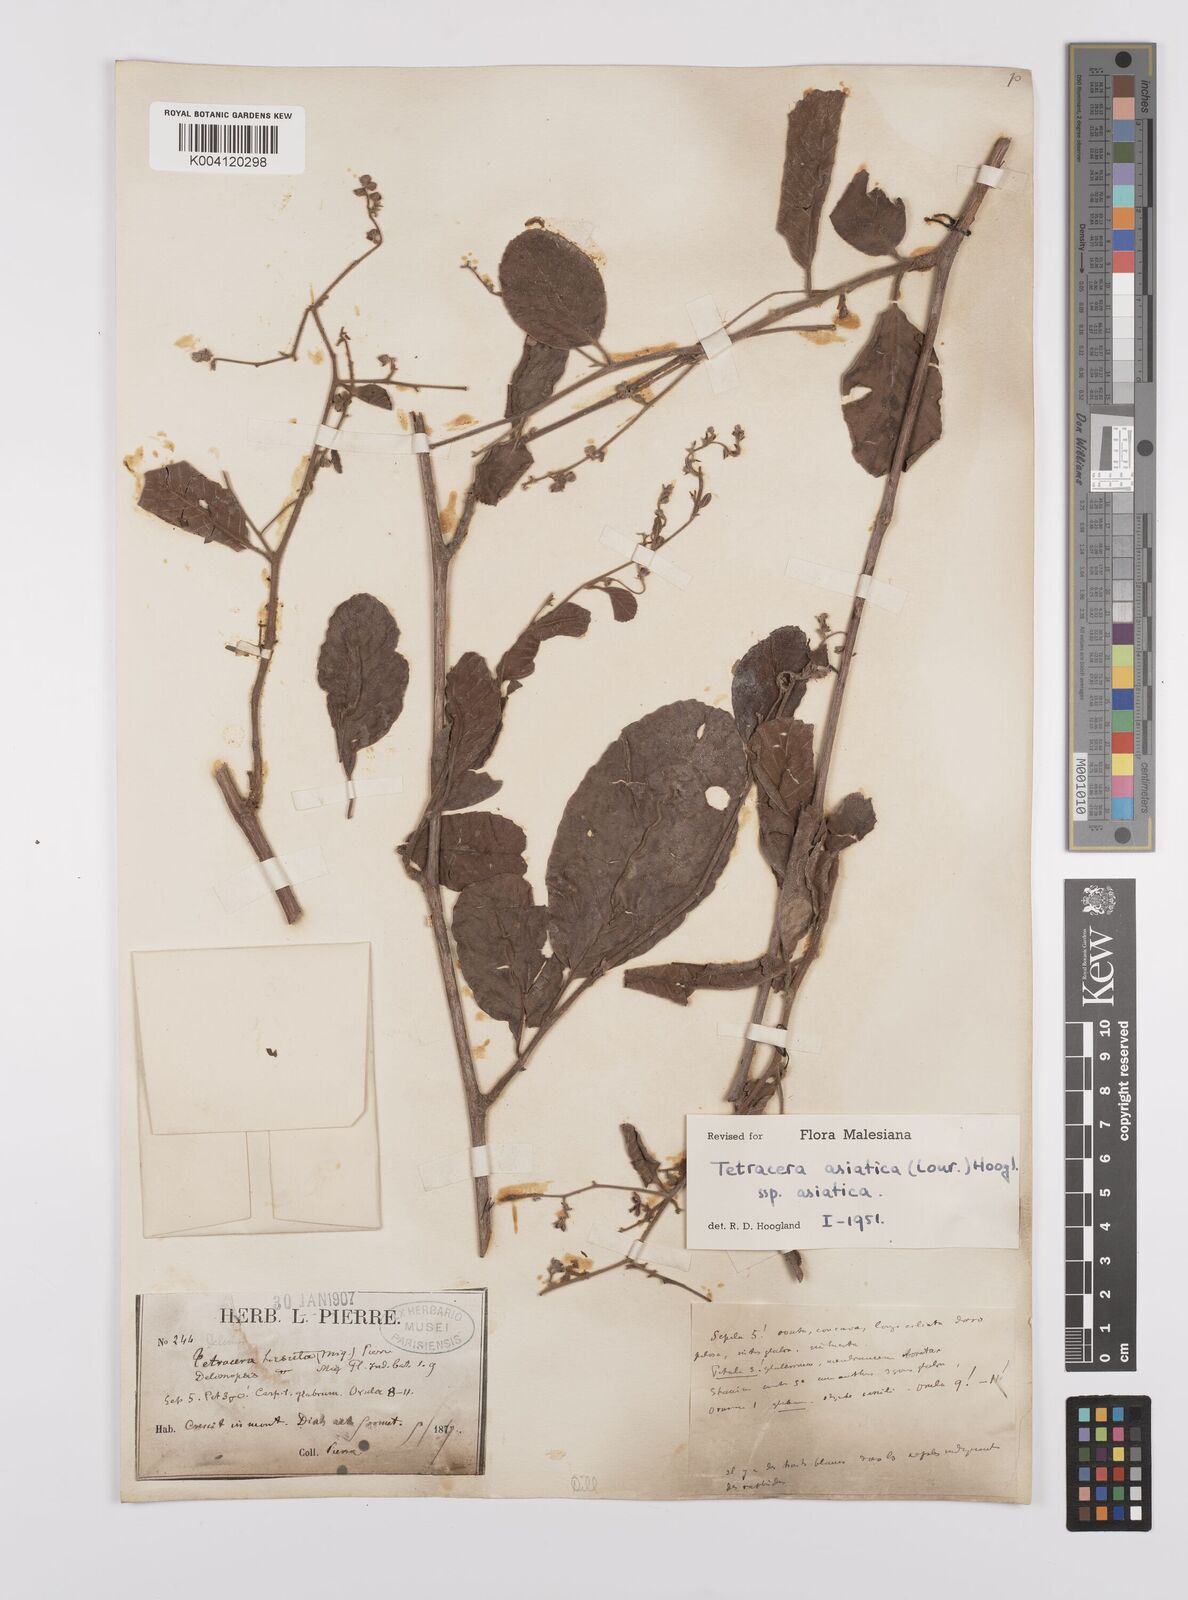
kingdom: Plantae
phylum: Tracheophyta
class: Magnoliopsida
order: Dilleniales
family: Dilleniaceae
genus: Tetracera
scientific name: Tetracera sarmentosa
